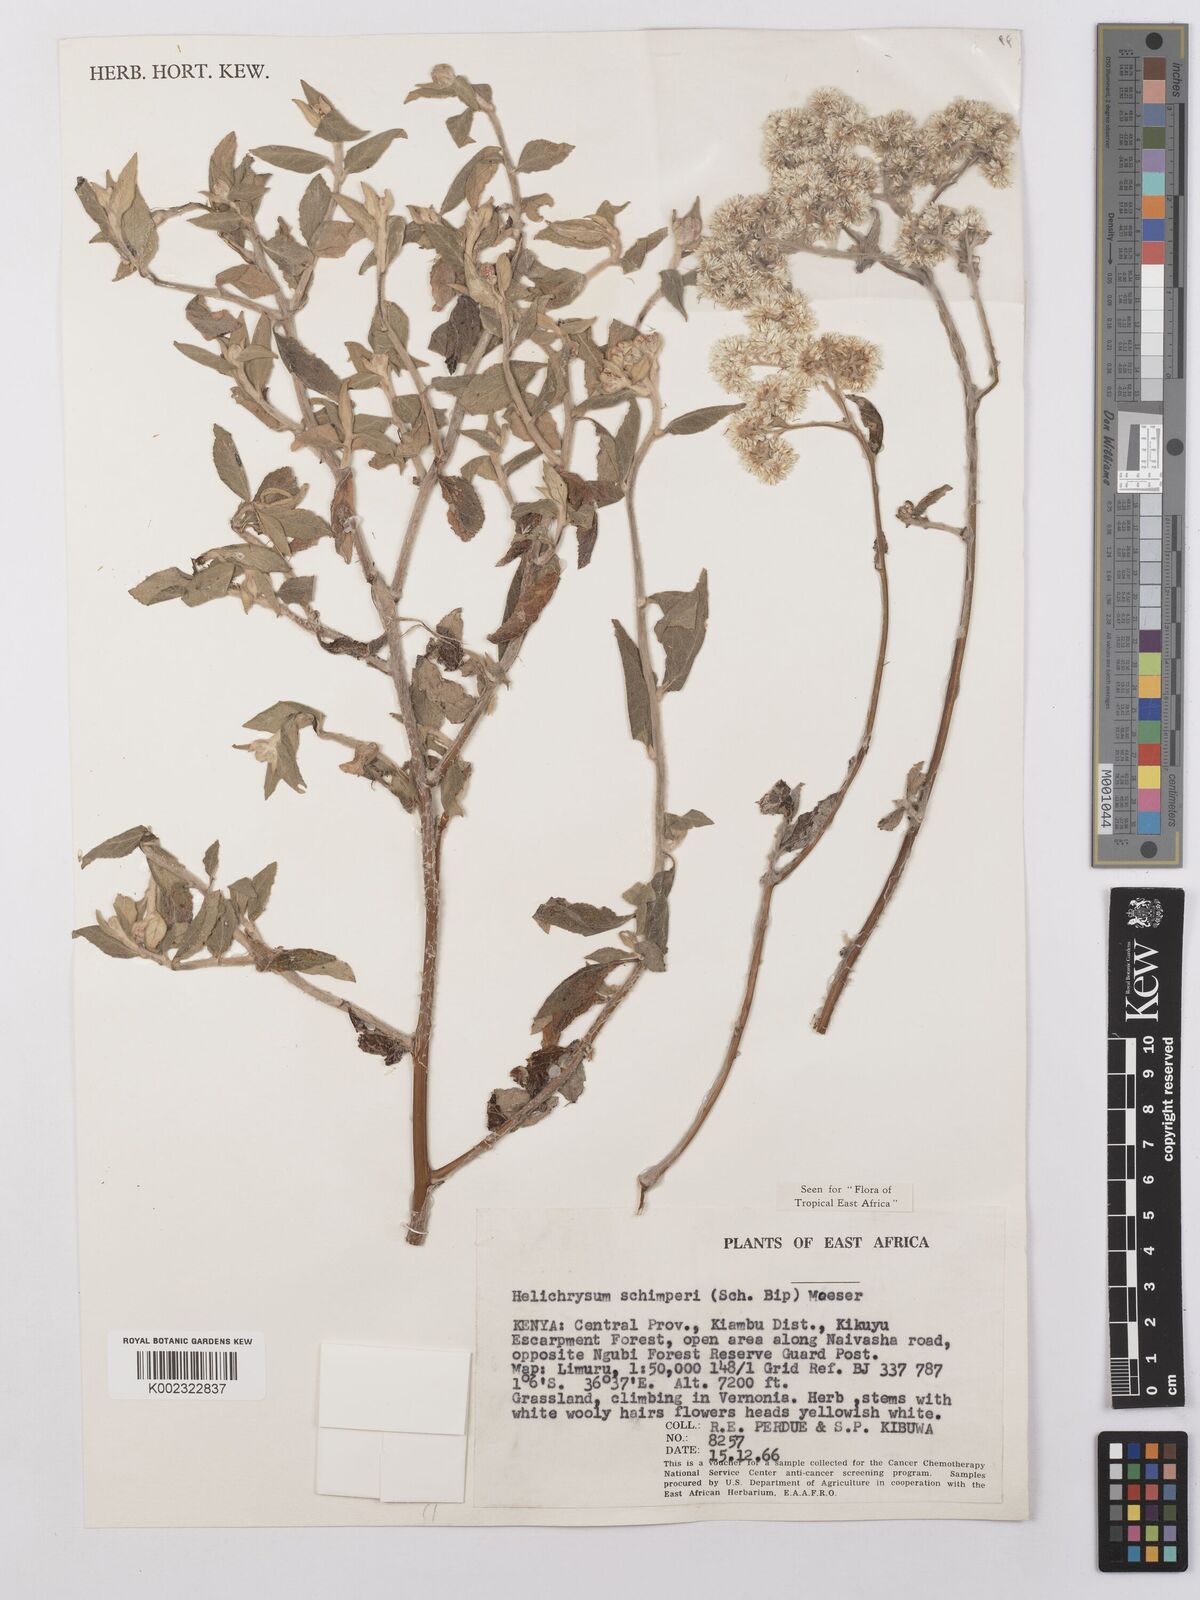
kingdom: Plantae
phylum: Tracheophyta
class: Magnoliopsida
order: Asterales
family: Asteraceae
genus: Helichrysum
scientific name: Helichrysum schimperi
